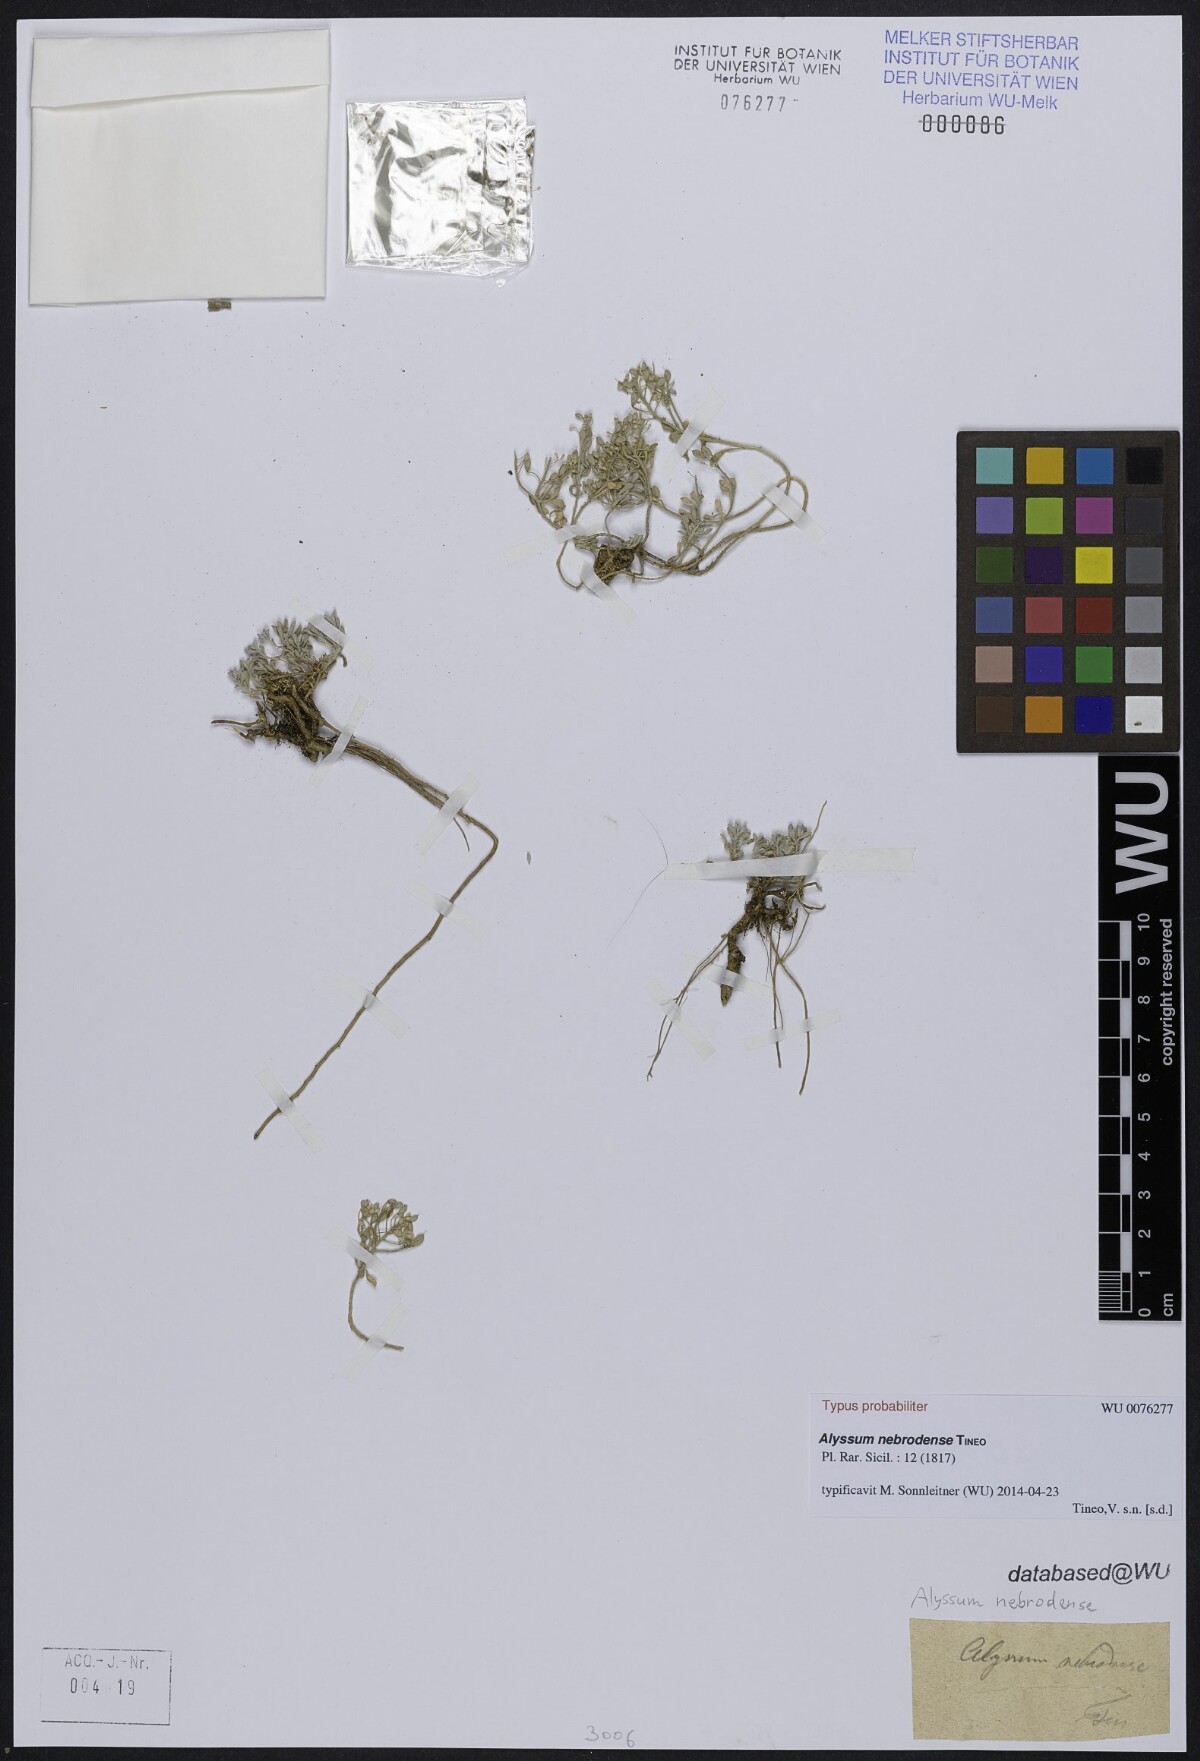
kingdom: Plantae
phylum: Tracheophyta
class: Magnoliopsida
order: Brassicales
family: Brassicaceae
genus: Odontarrhena
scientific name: Odontarrhena nebrodensis
